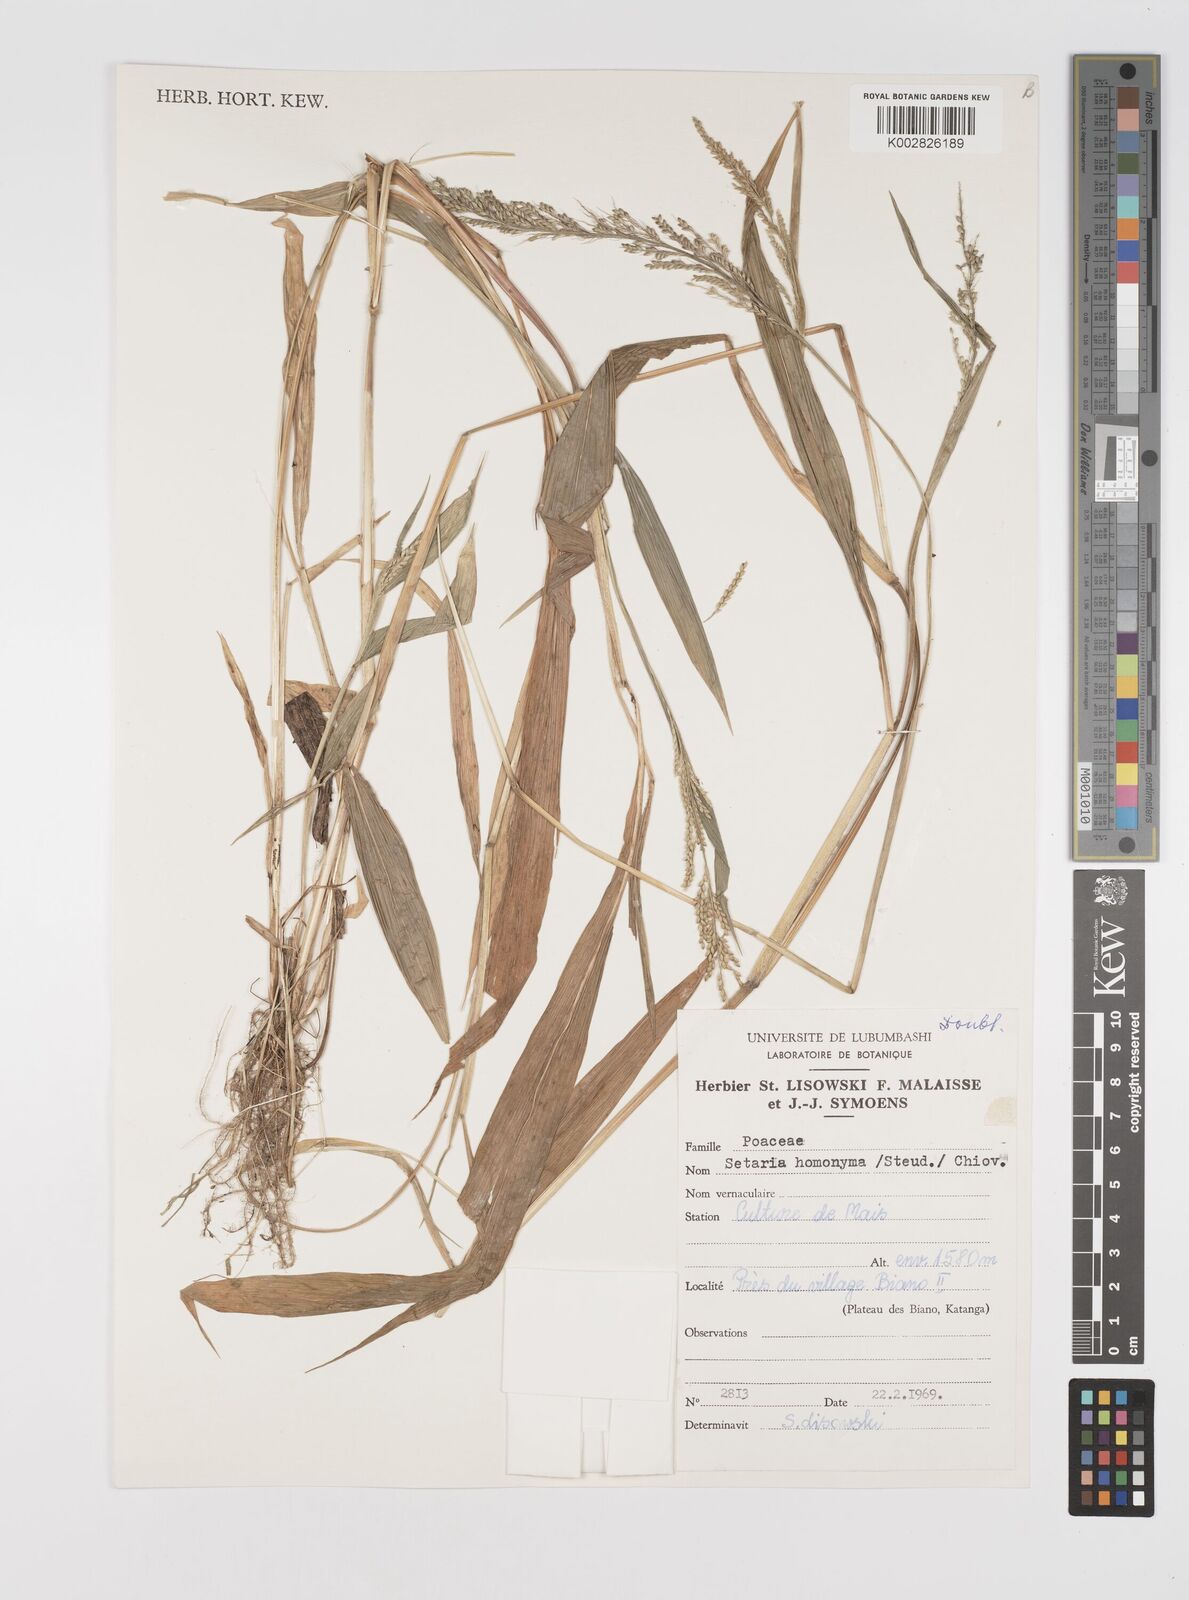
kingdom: Plantae
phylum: Tracheophyta
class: Liliopsida
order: Poales
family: Poaceae
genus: Setaria
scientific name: Setaria homonyma
